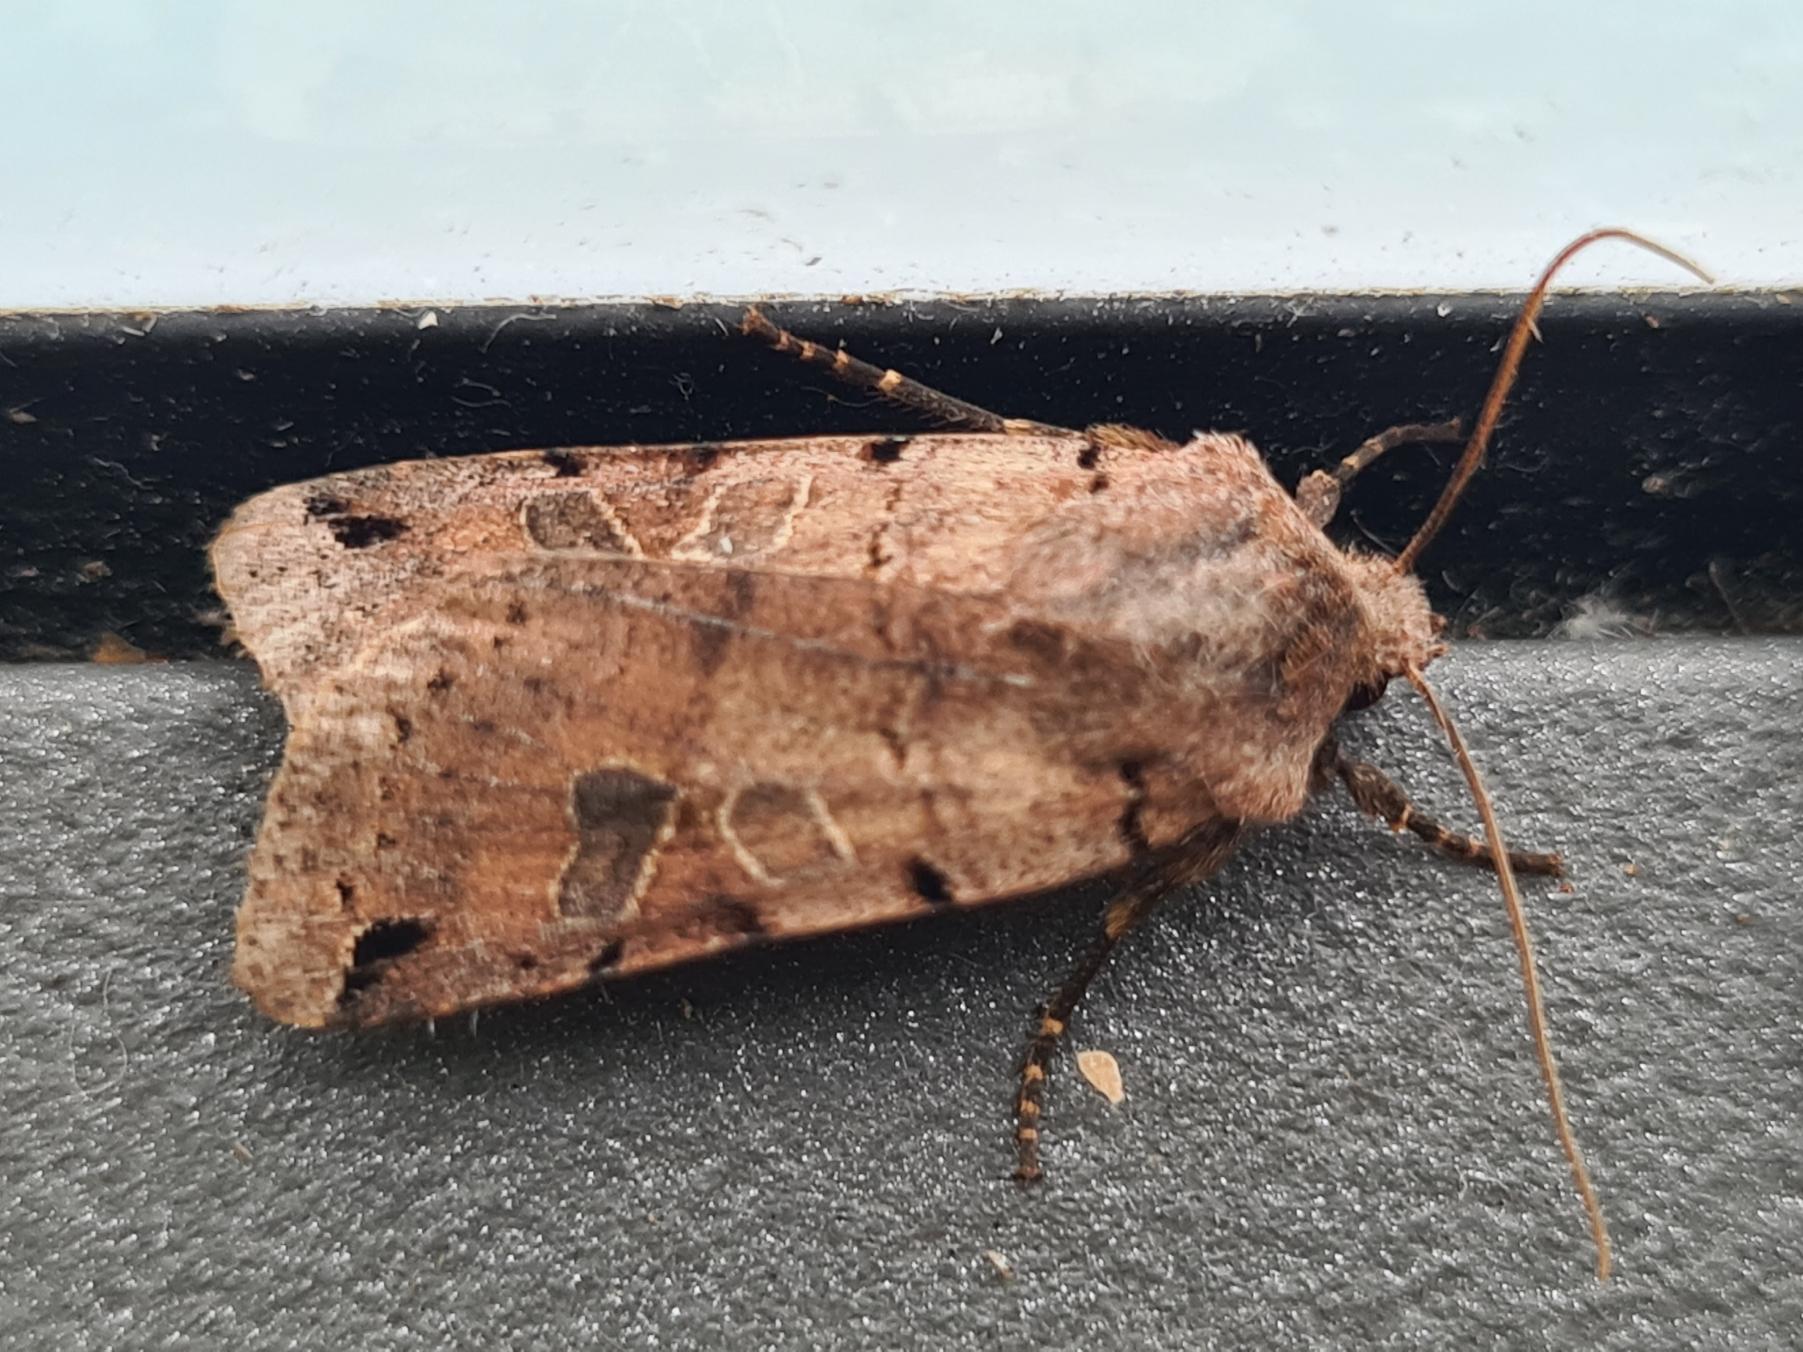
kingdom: Animalia
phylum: Arthropoda
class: Insecta
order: Lepidoptera
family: Noctuidae
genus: Agrochola
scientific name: Agrochola litura
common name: Kantplettet jordfarveugle
